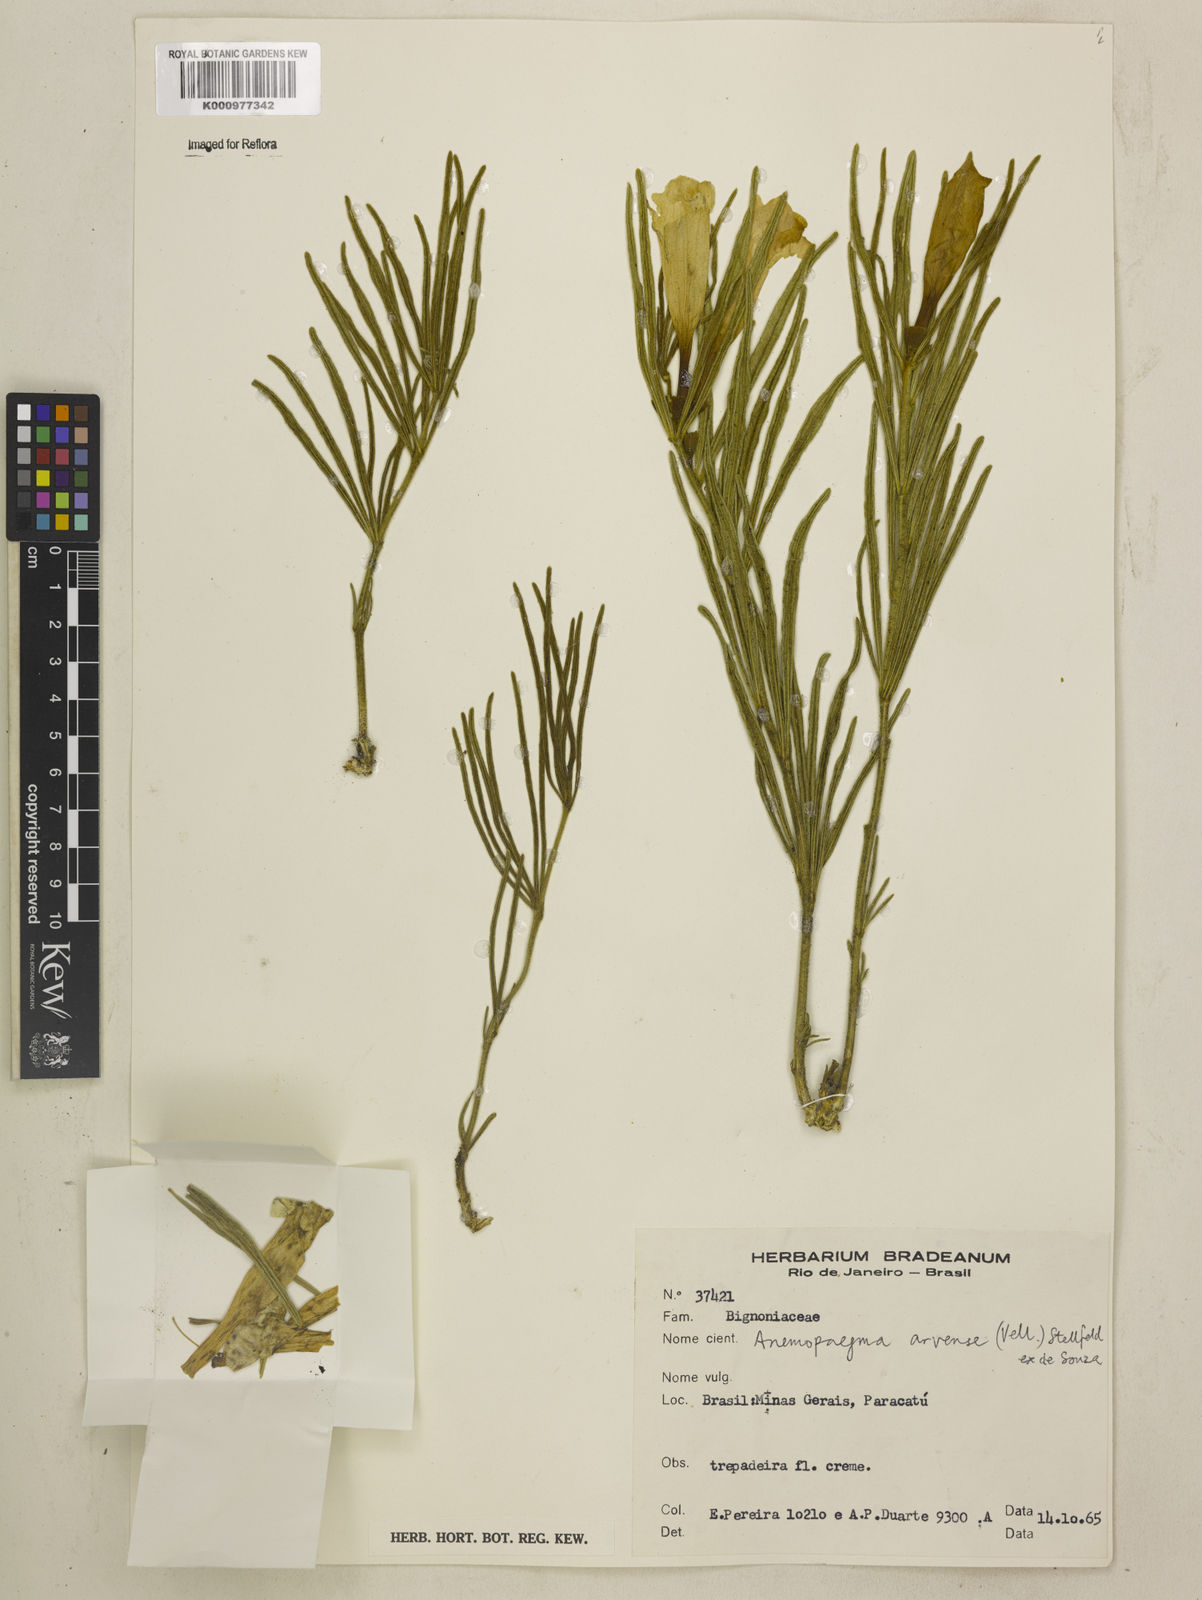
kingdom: Plantae
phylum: Tracheophyta
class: Magnoliopsida
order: Lamiales
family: Bignoniaceae
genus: Anemopaegma
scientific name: Anemopaegma arvense
